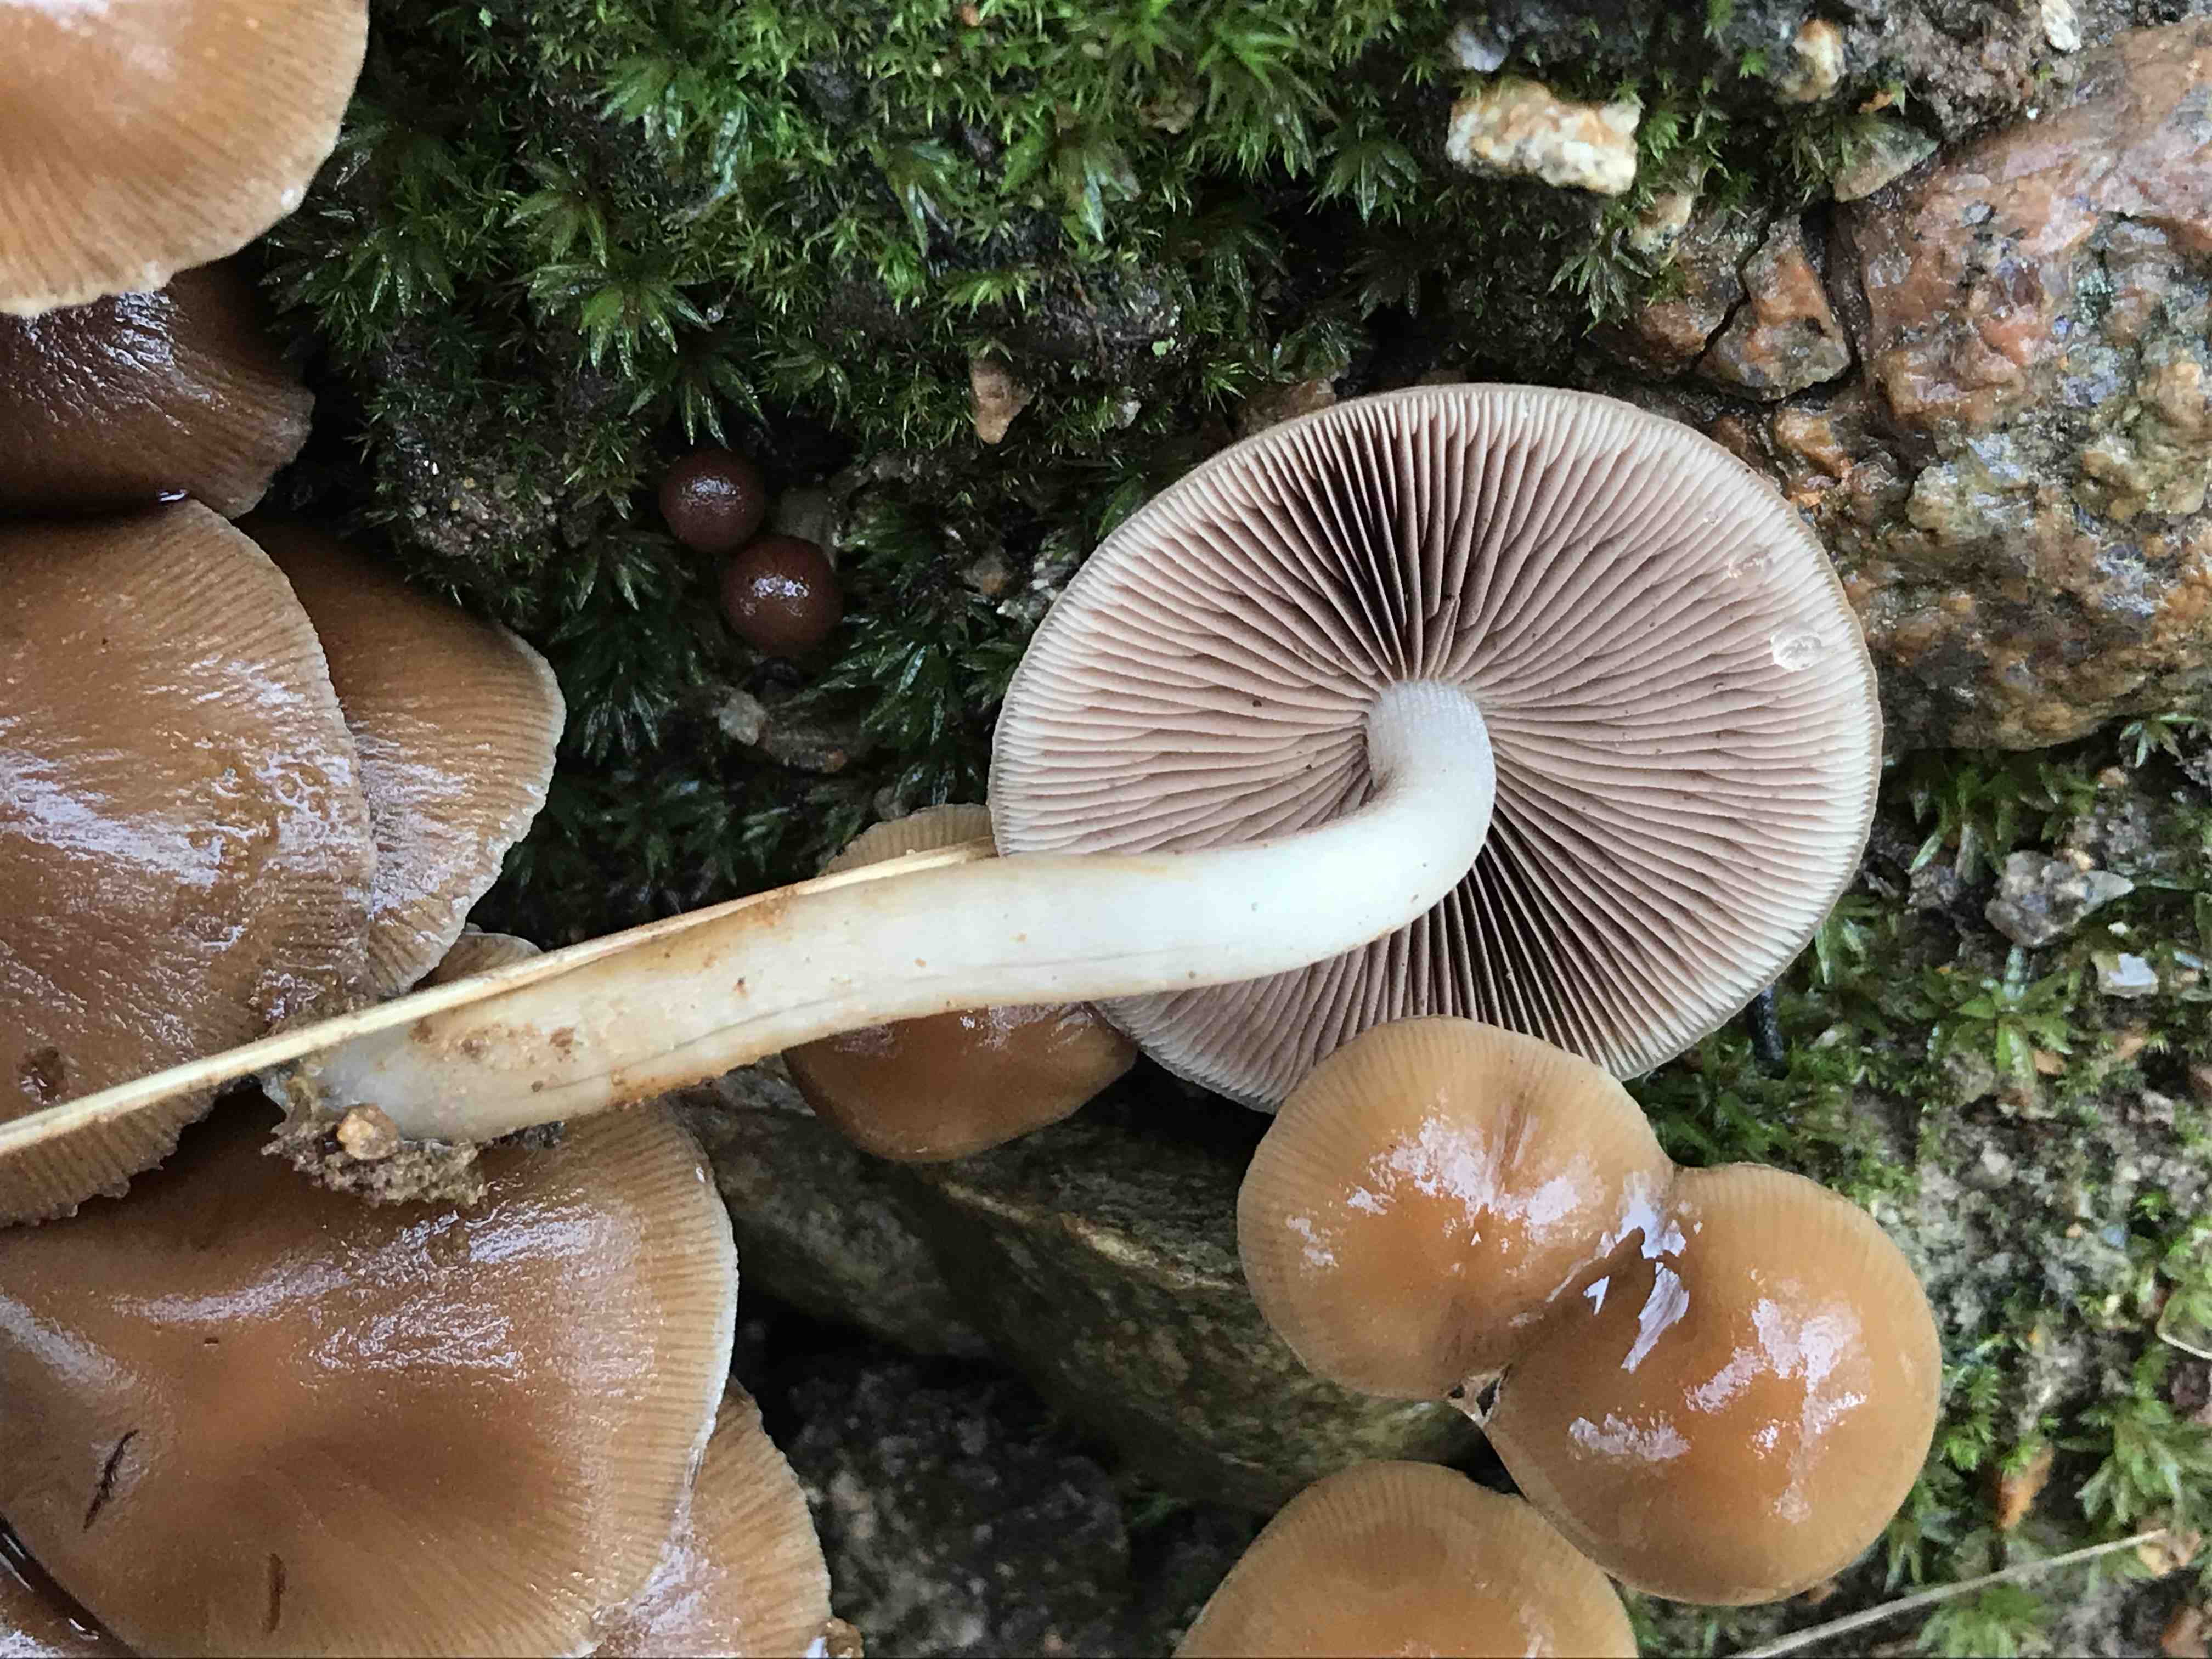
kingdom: Fungi
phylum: Basidiomycota
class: Agaricomycetes
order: Agaricales
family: Psathyrellaceae
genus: Psathyrella
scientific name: Psathyrella piluliformis
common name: lysstokket mørkhat
